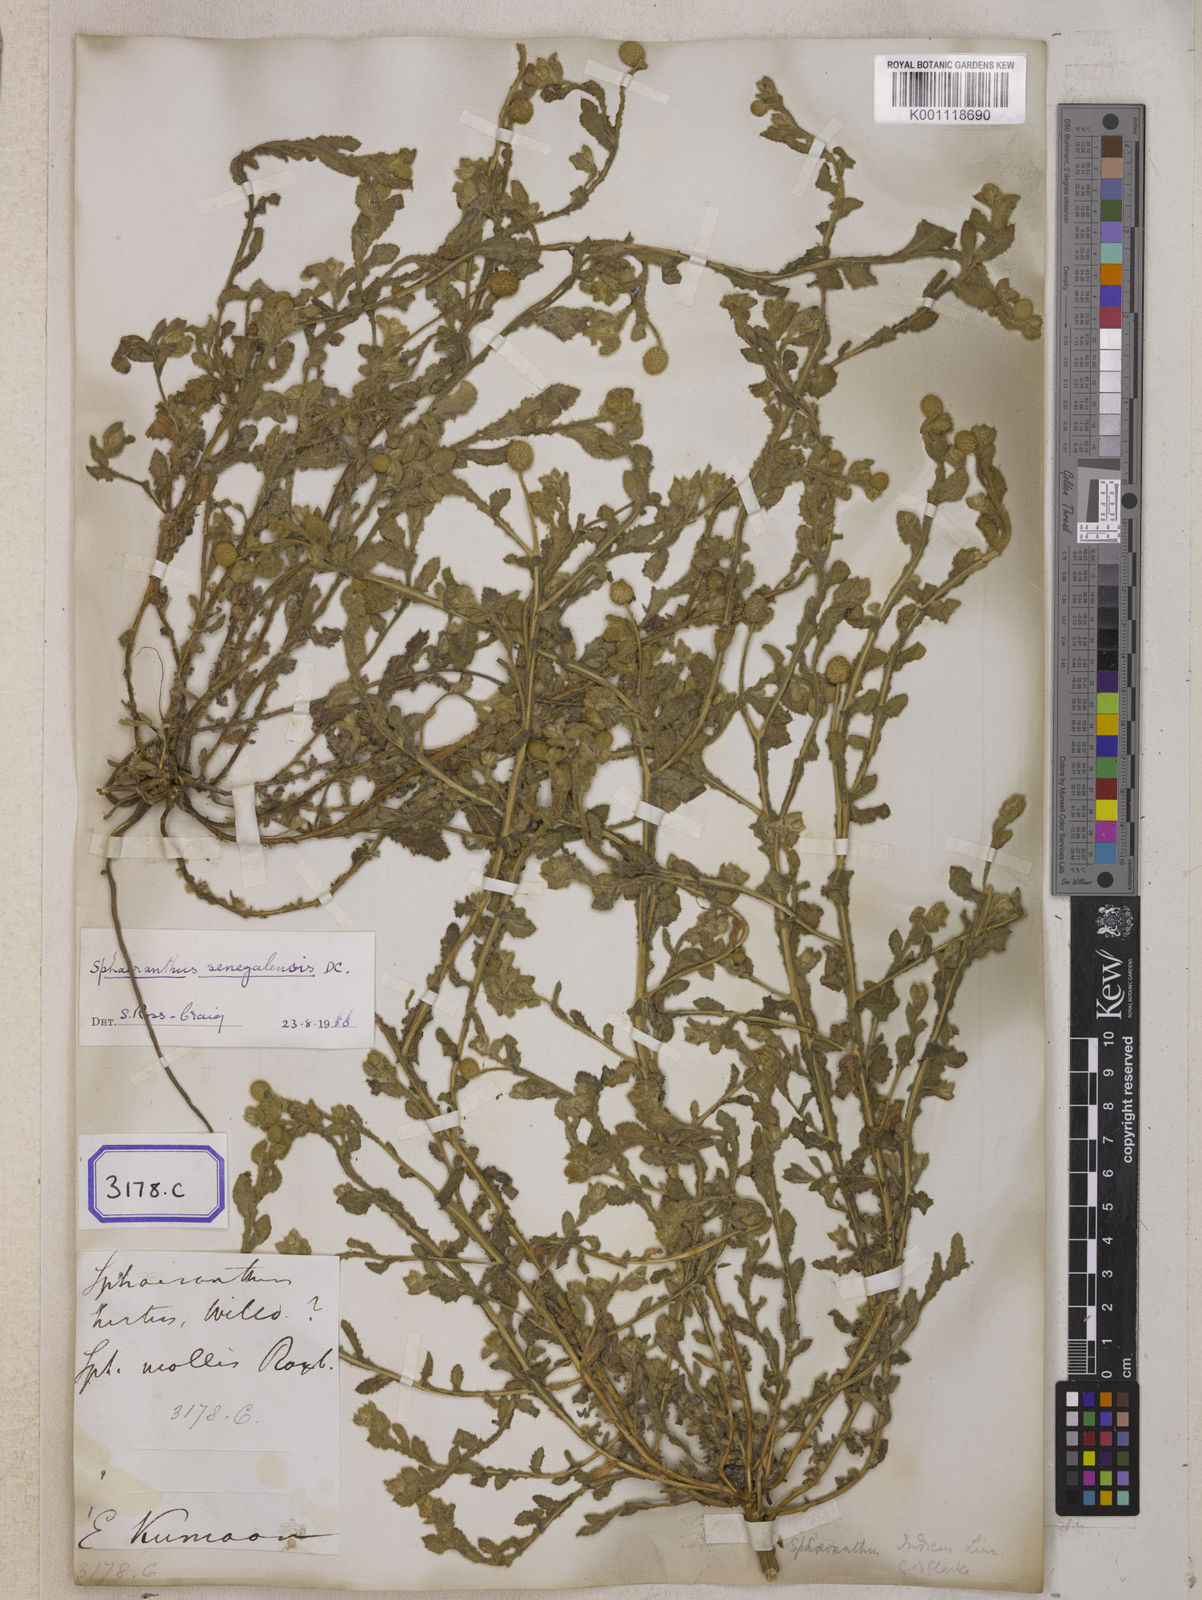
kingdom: Plantae
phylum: Tracheophyta
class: Magnoliopsida
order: Asterales
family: Asteraceae
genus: Sphaeranthus
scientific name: Sphaeranthus indicus
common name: East indian globe thistle
